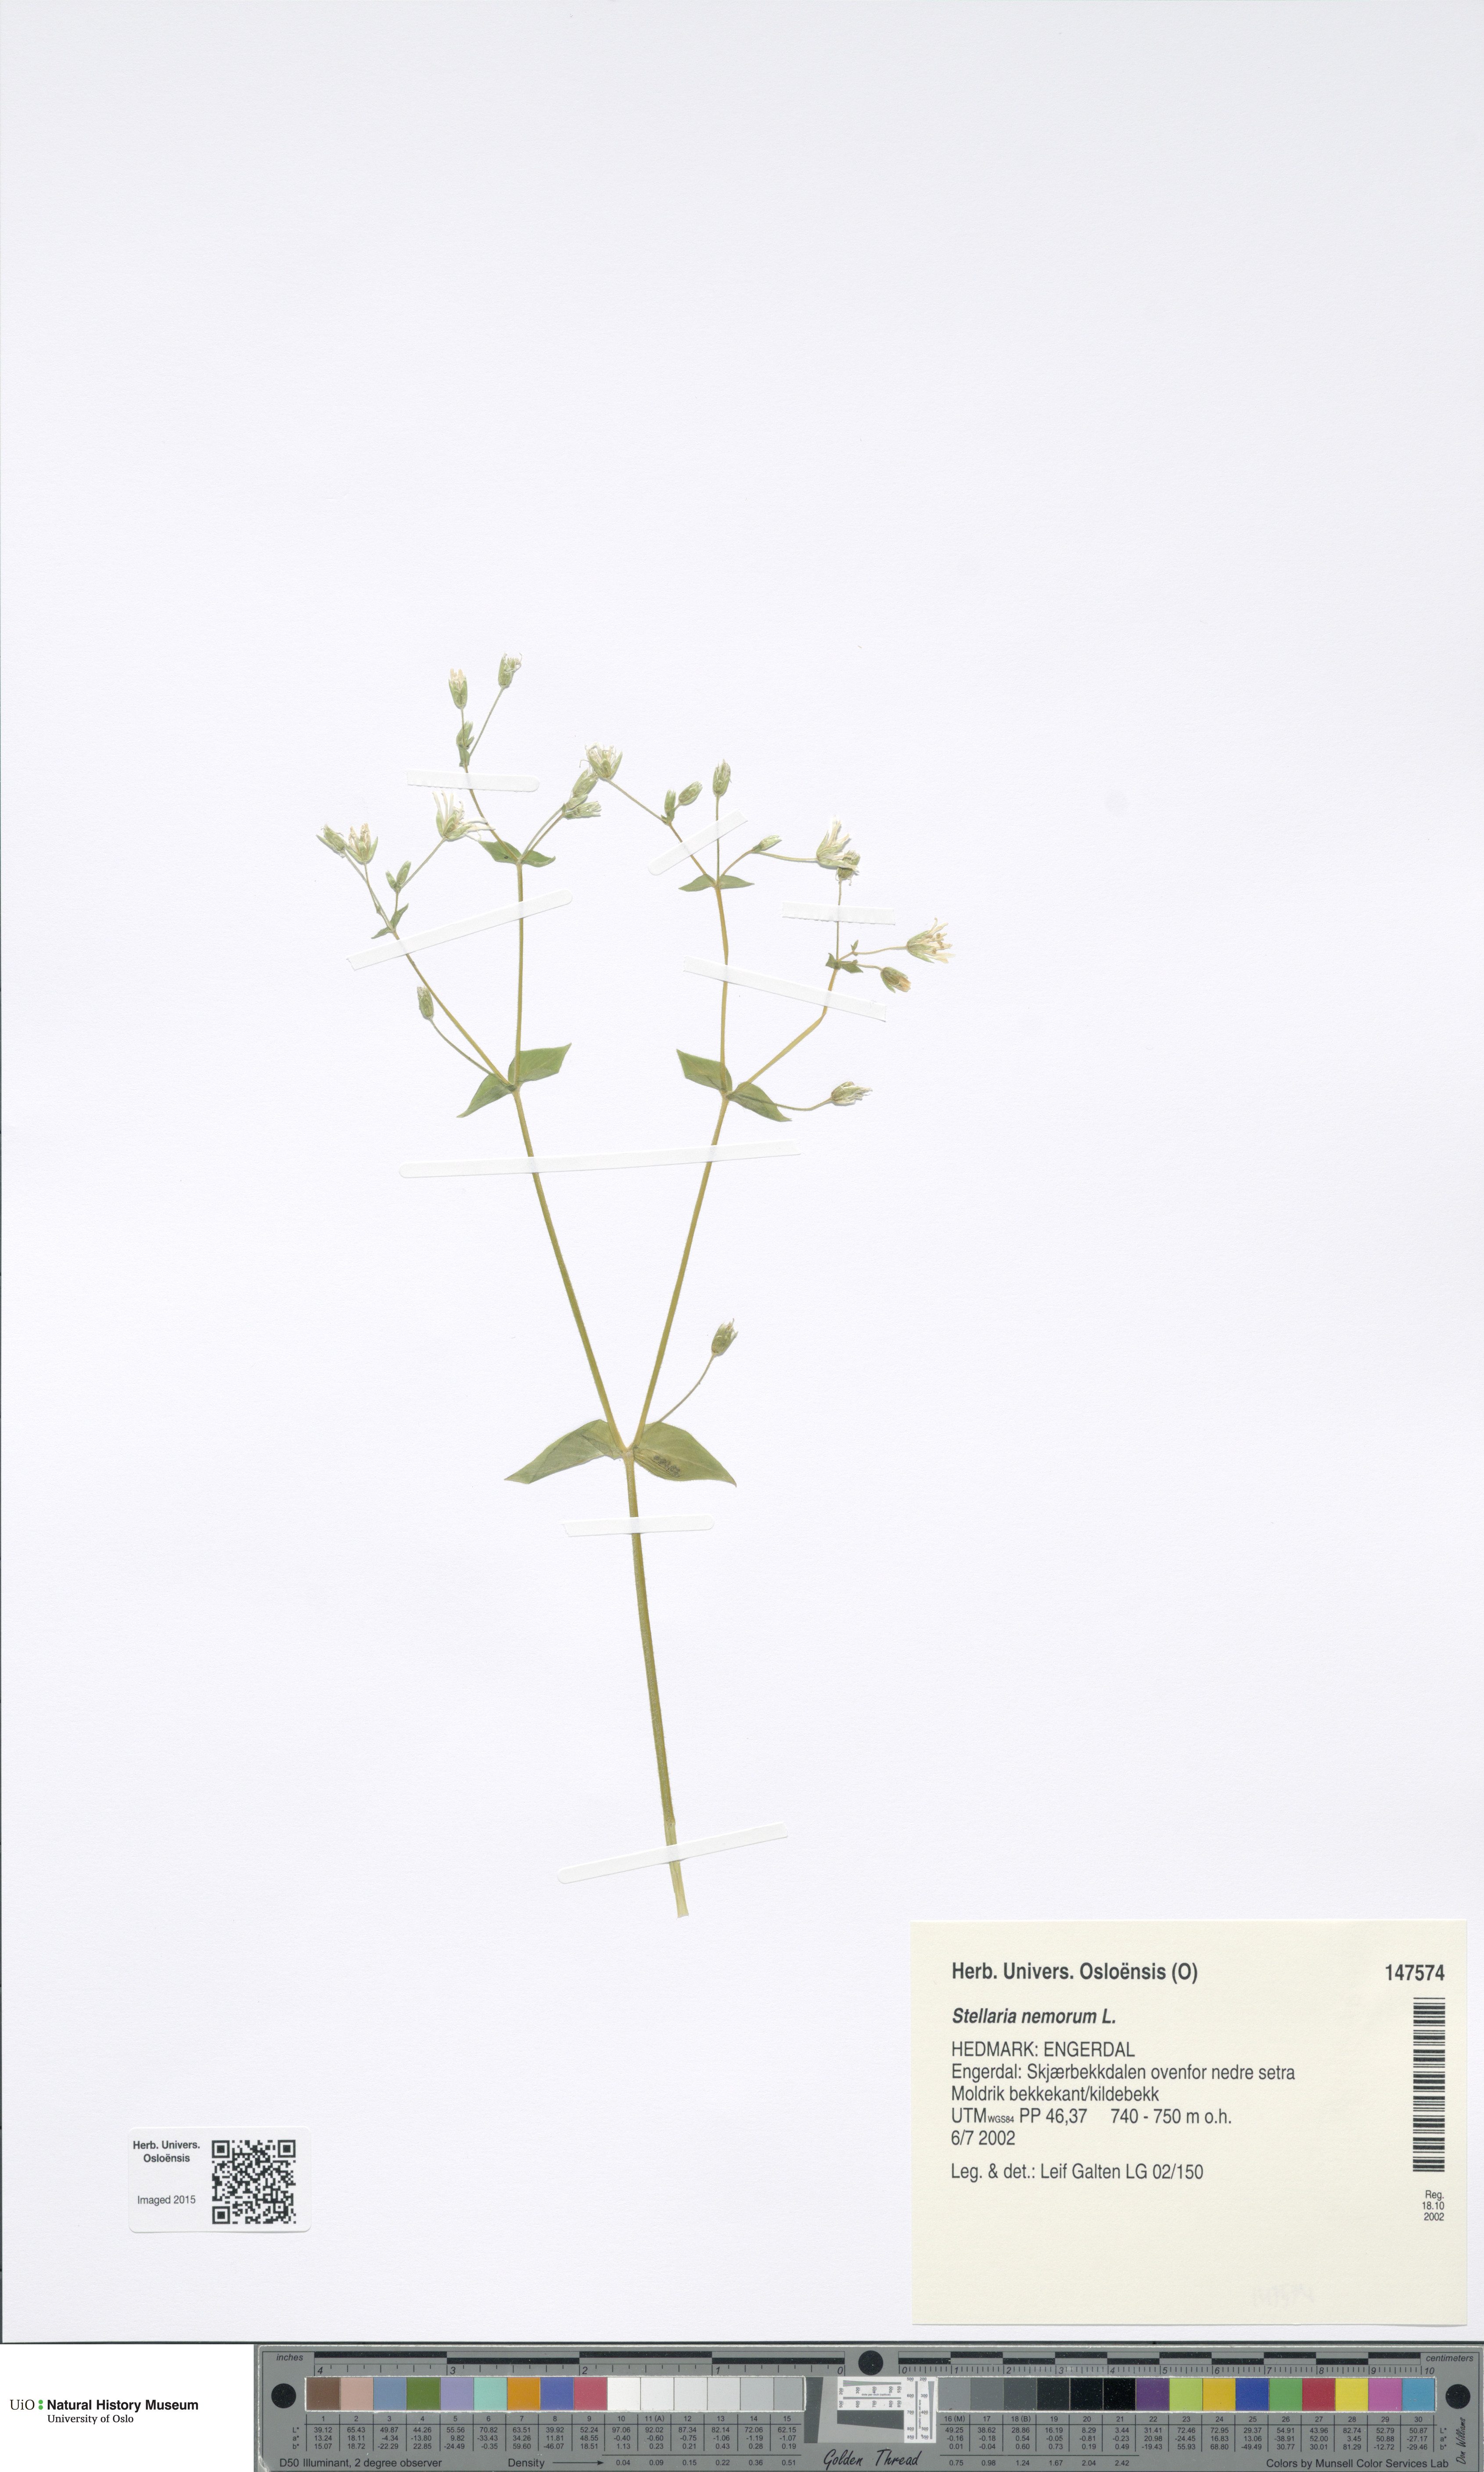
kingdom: Plantae
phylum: Tracheophyta
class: Magnoliopsida
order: Caryophyllales
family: Caryophyllaceae
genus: Stellaria
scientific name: Stellaria nemorum
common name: Wood stitchwort
